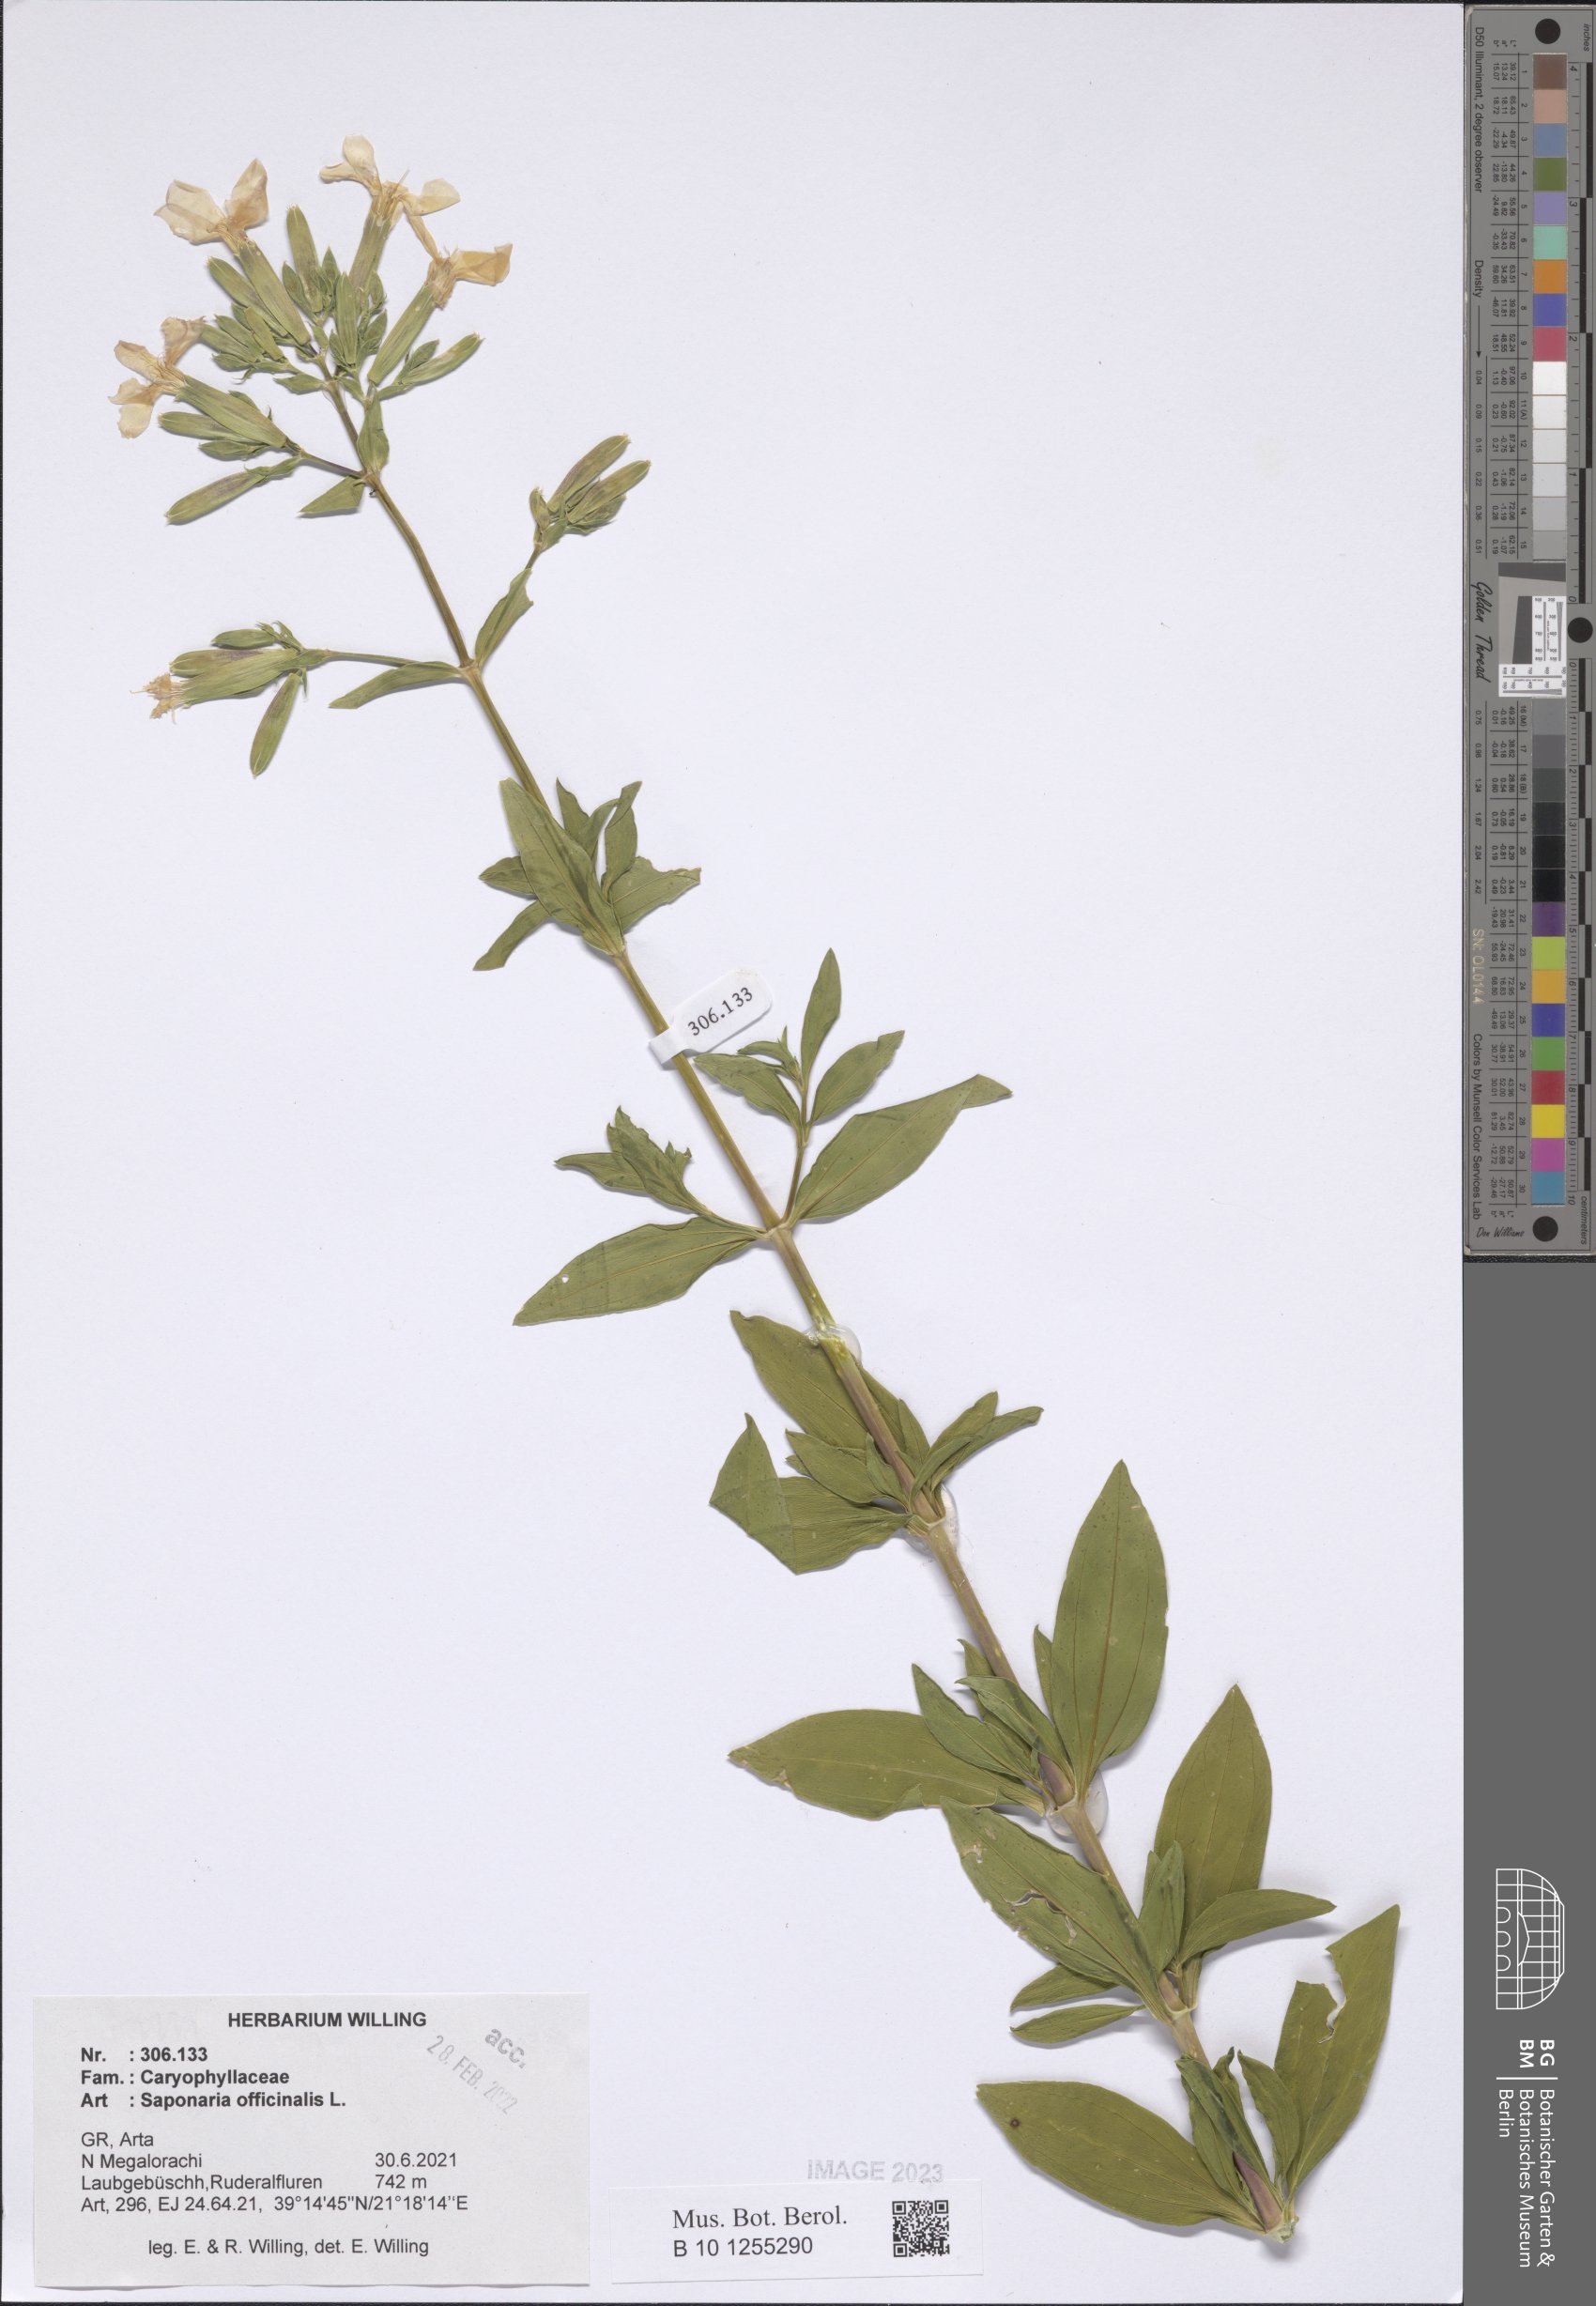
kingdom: Plantae
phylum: Tracheophyta
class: Magnoliopsida
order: Caryophyllales
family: Caryophyllaceae
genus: Saponaria
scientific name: Saponaria officinalis
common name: Soapwort
